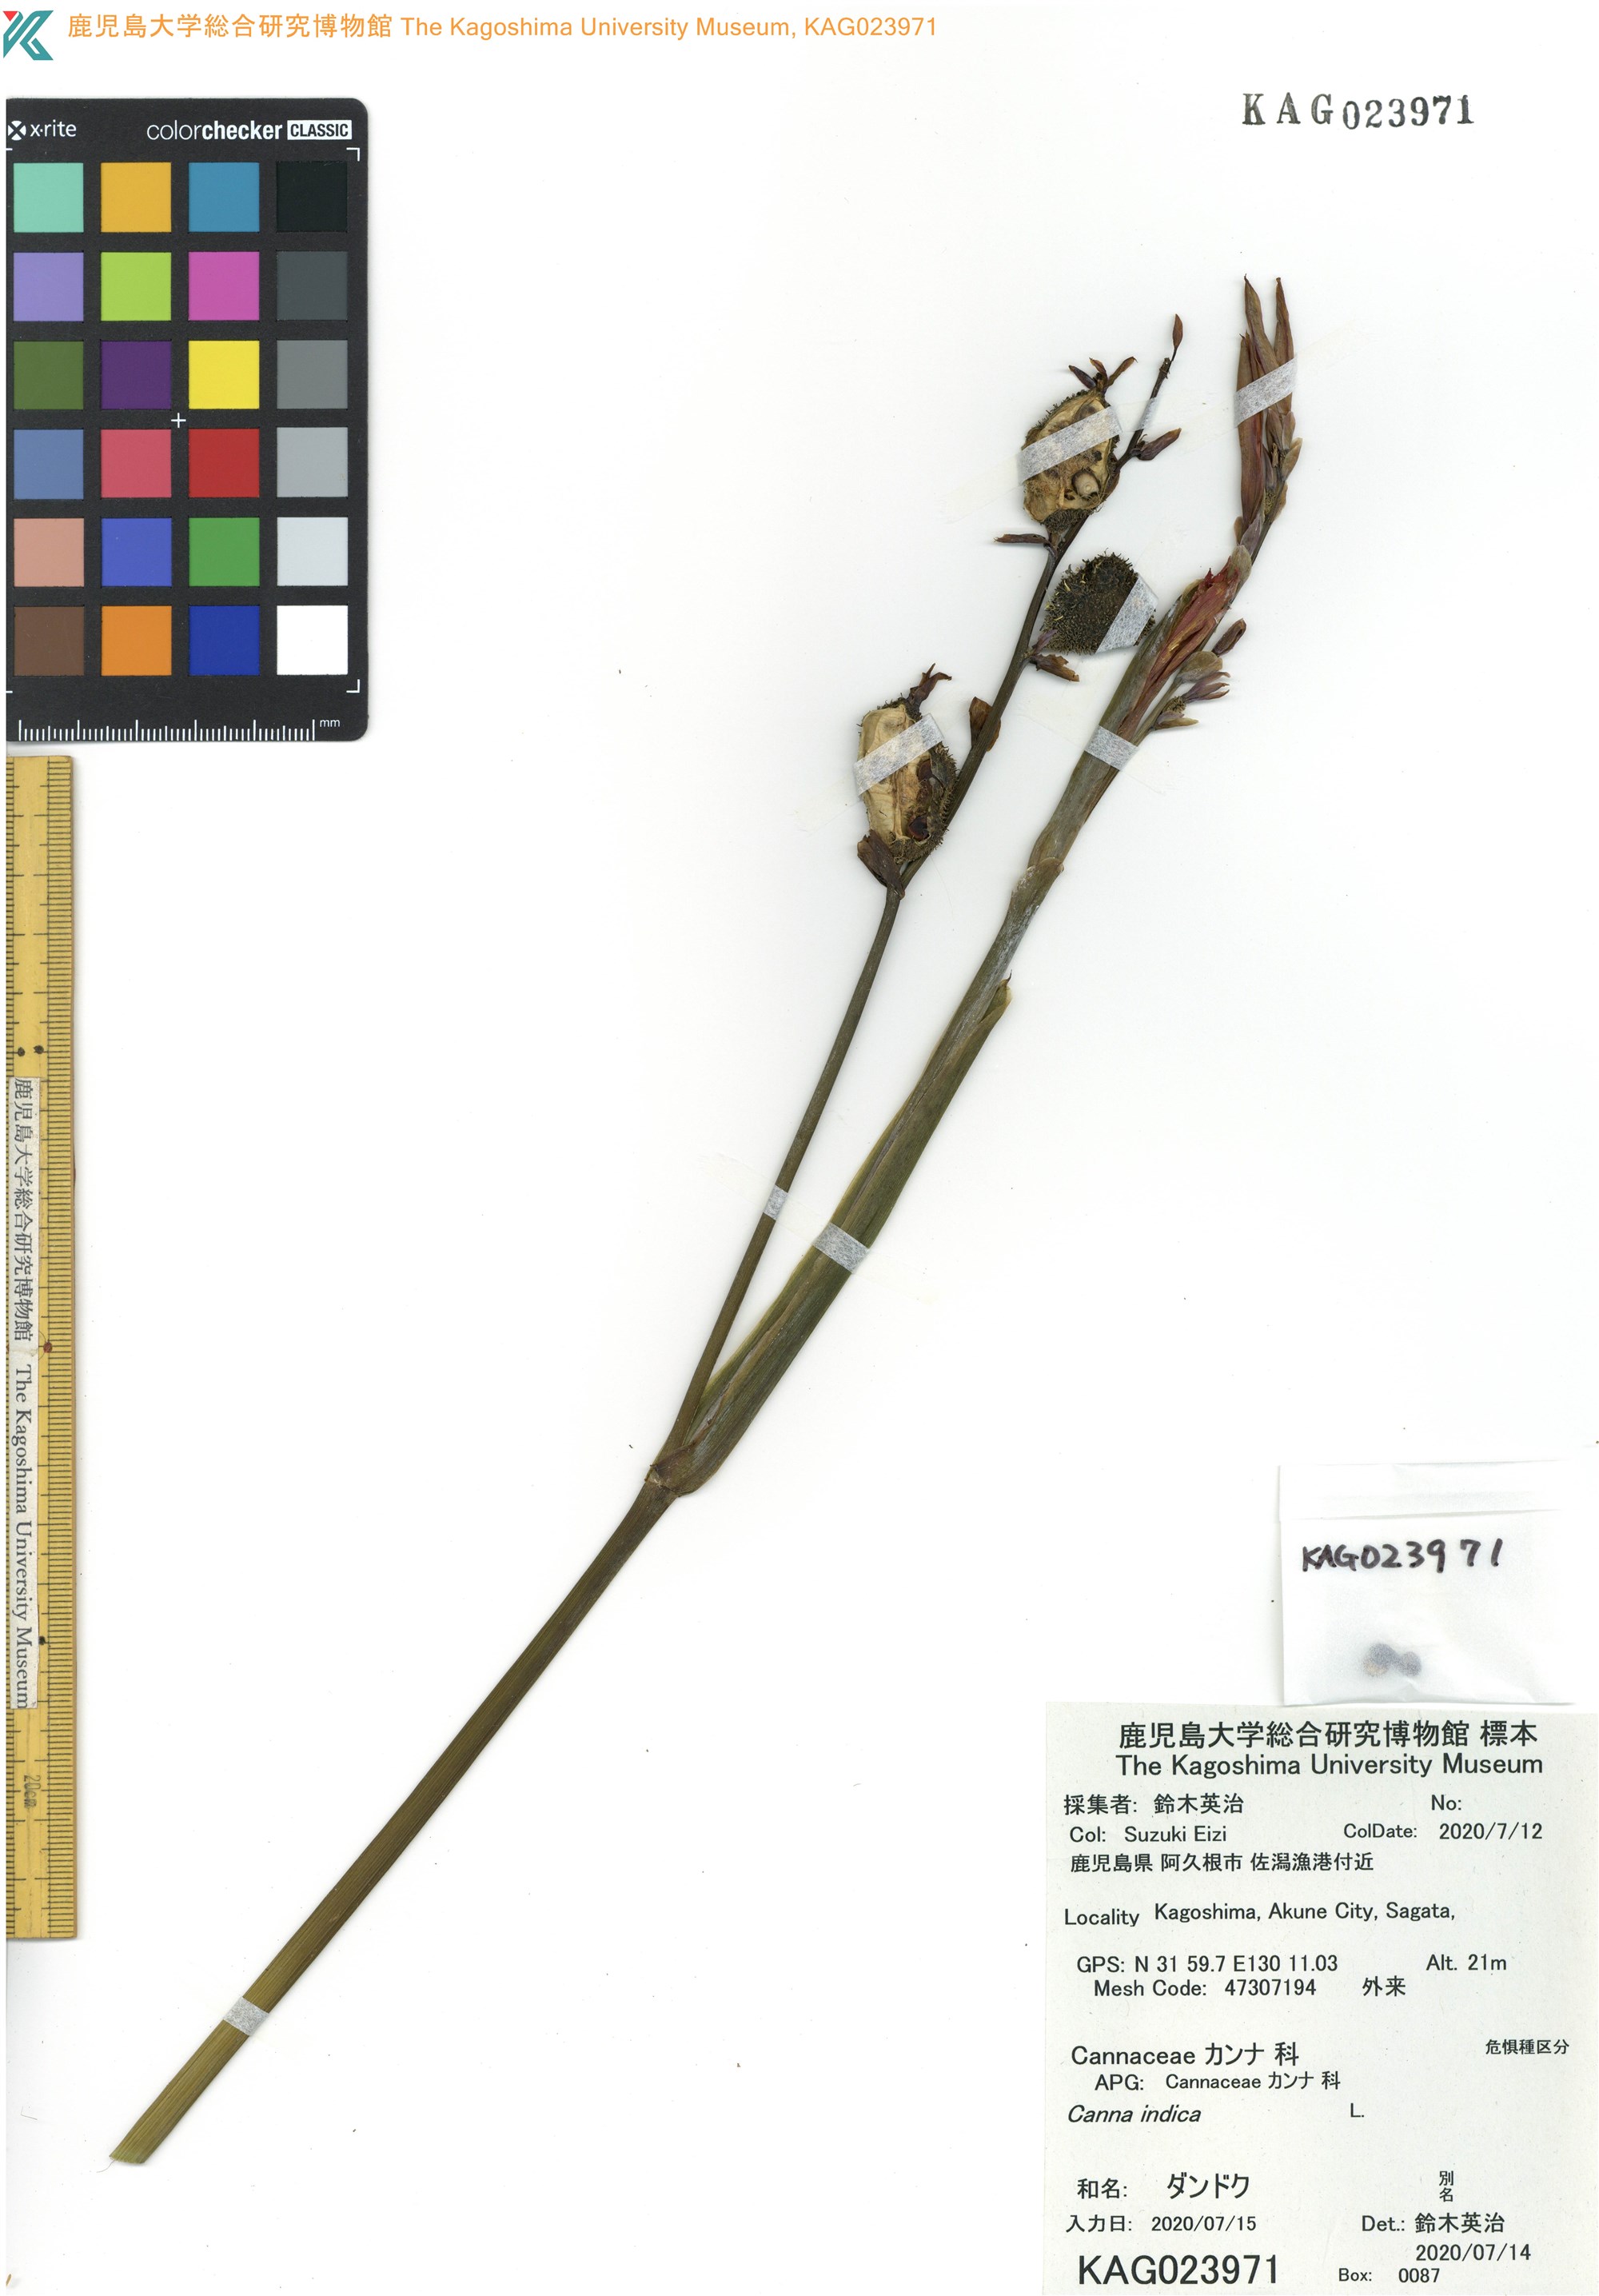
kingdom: Plantae
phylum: Tracheophyta
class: Liliopsida
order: Zingiberales
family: Cannaceae
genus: Canna
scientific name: Canna indica
